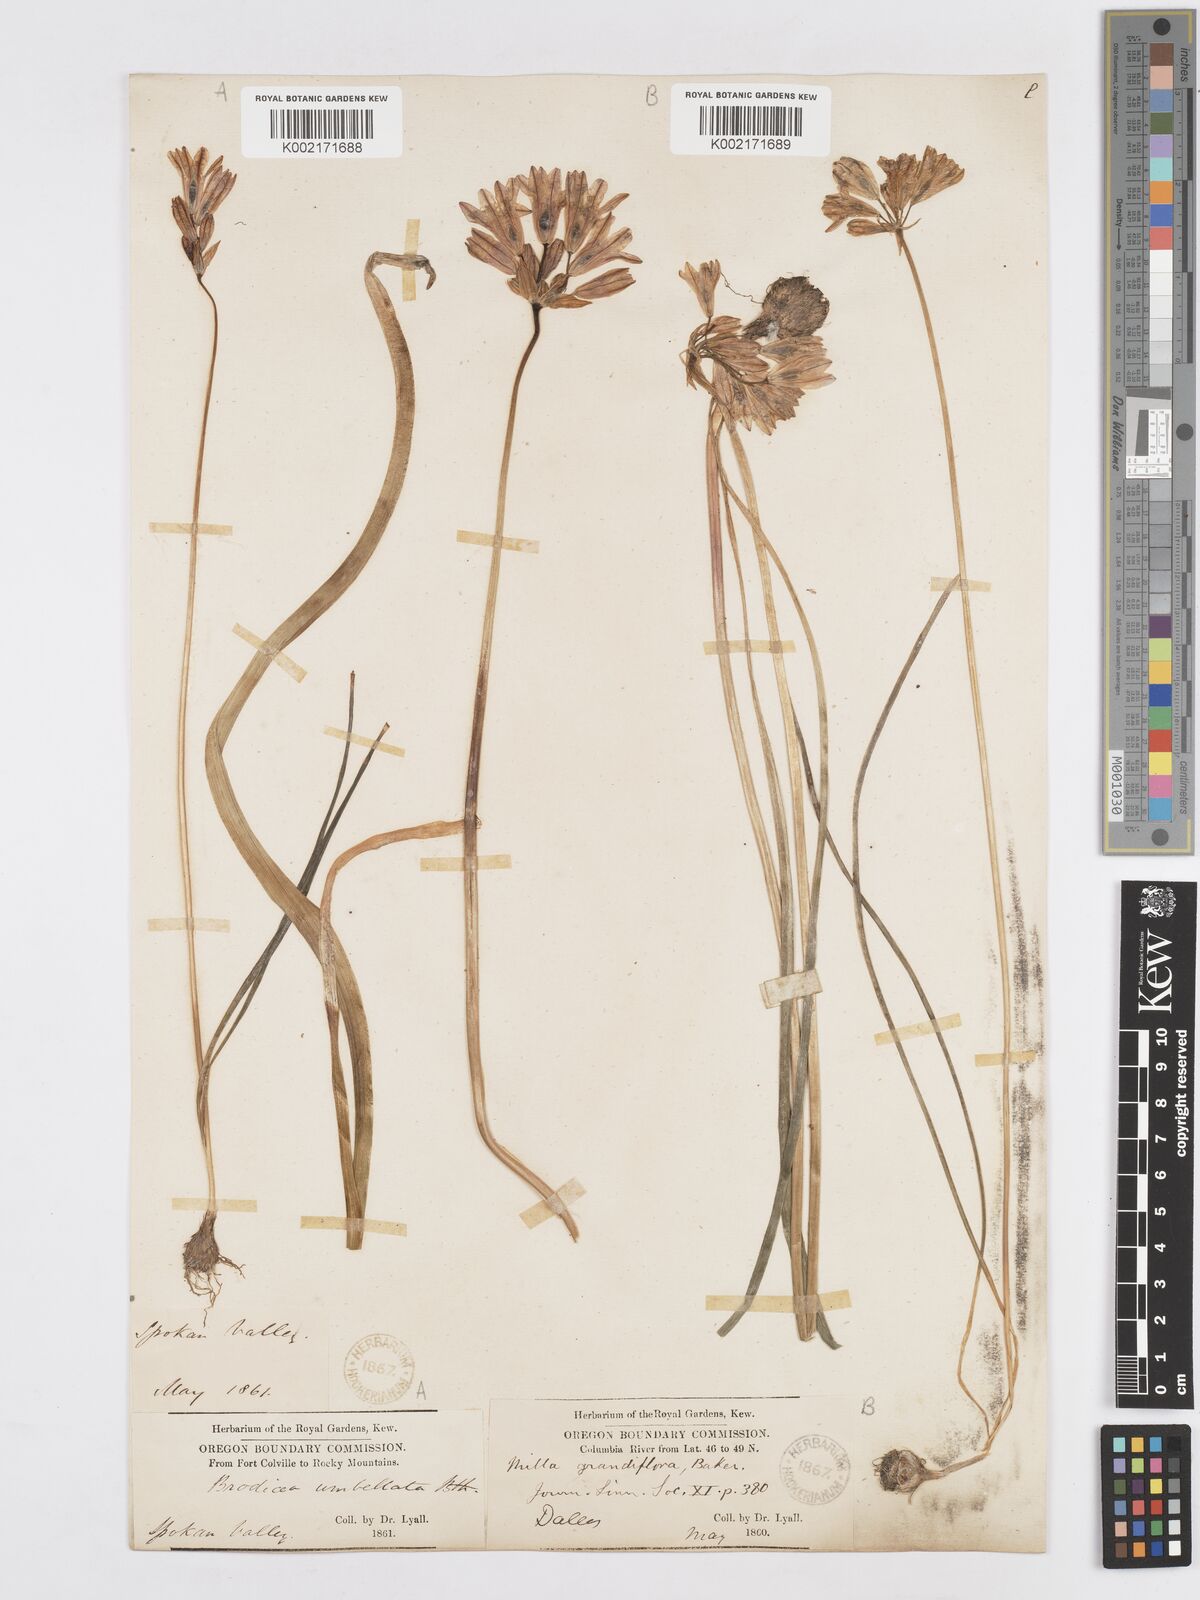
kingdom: Plantae
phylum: Tracheophyta
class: Liliopsida
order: Asparagales
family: Asparagaceae
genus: Triteleia
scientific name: Triteleia grandiflora
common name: Wild hyacinth
